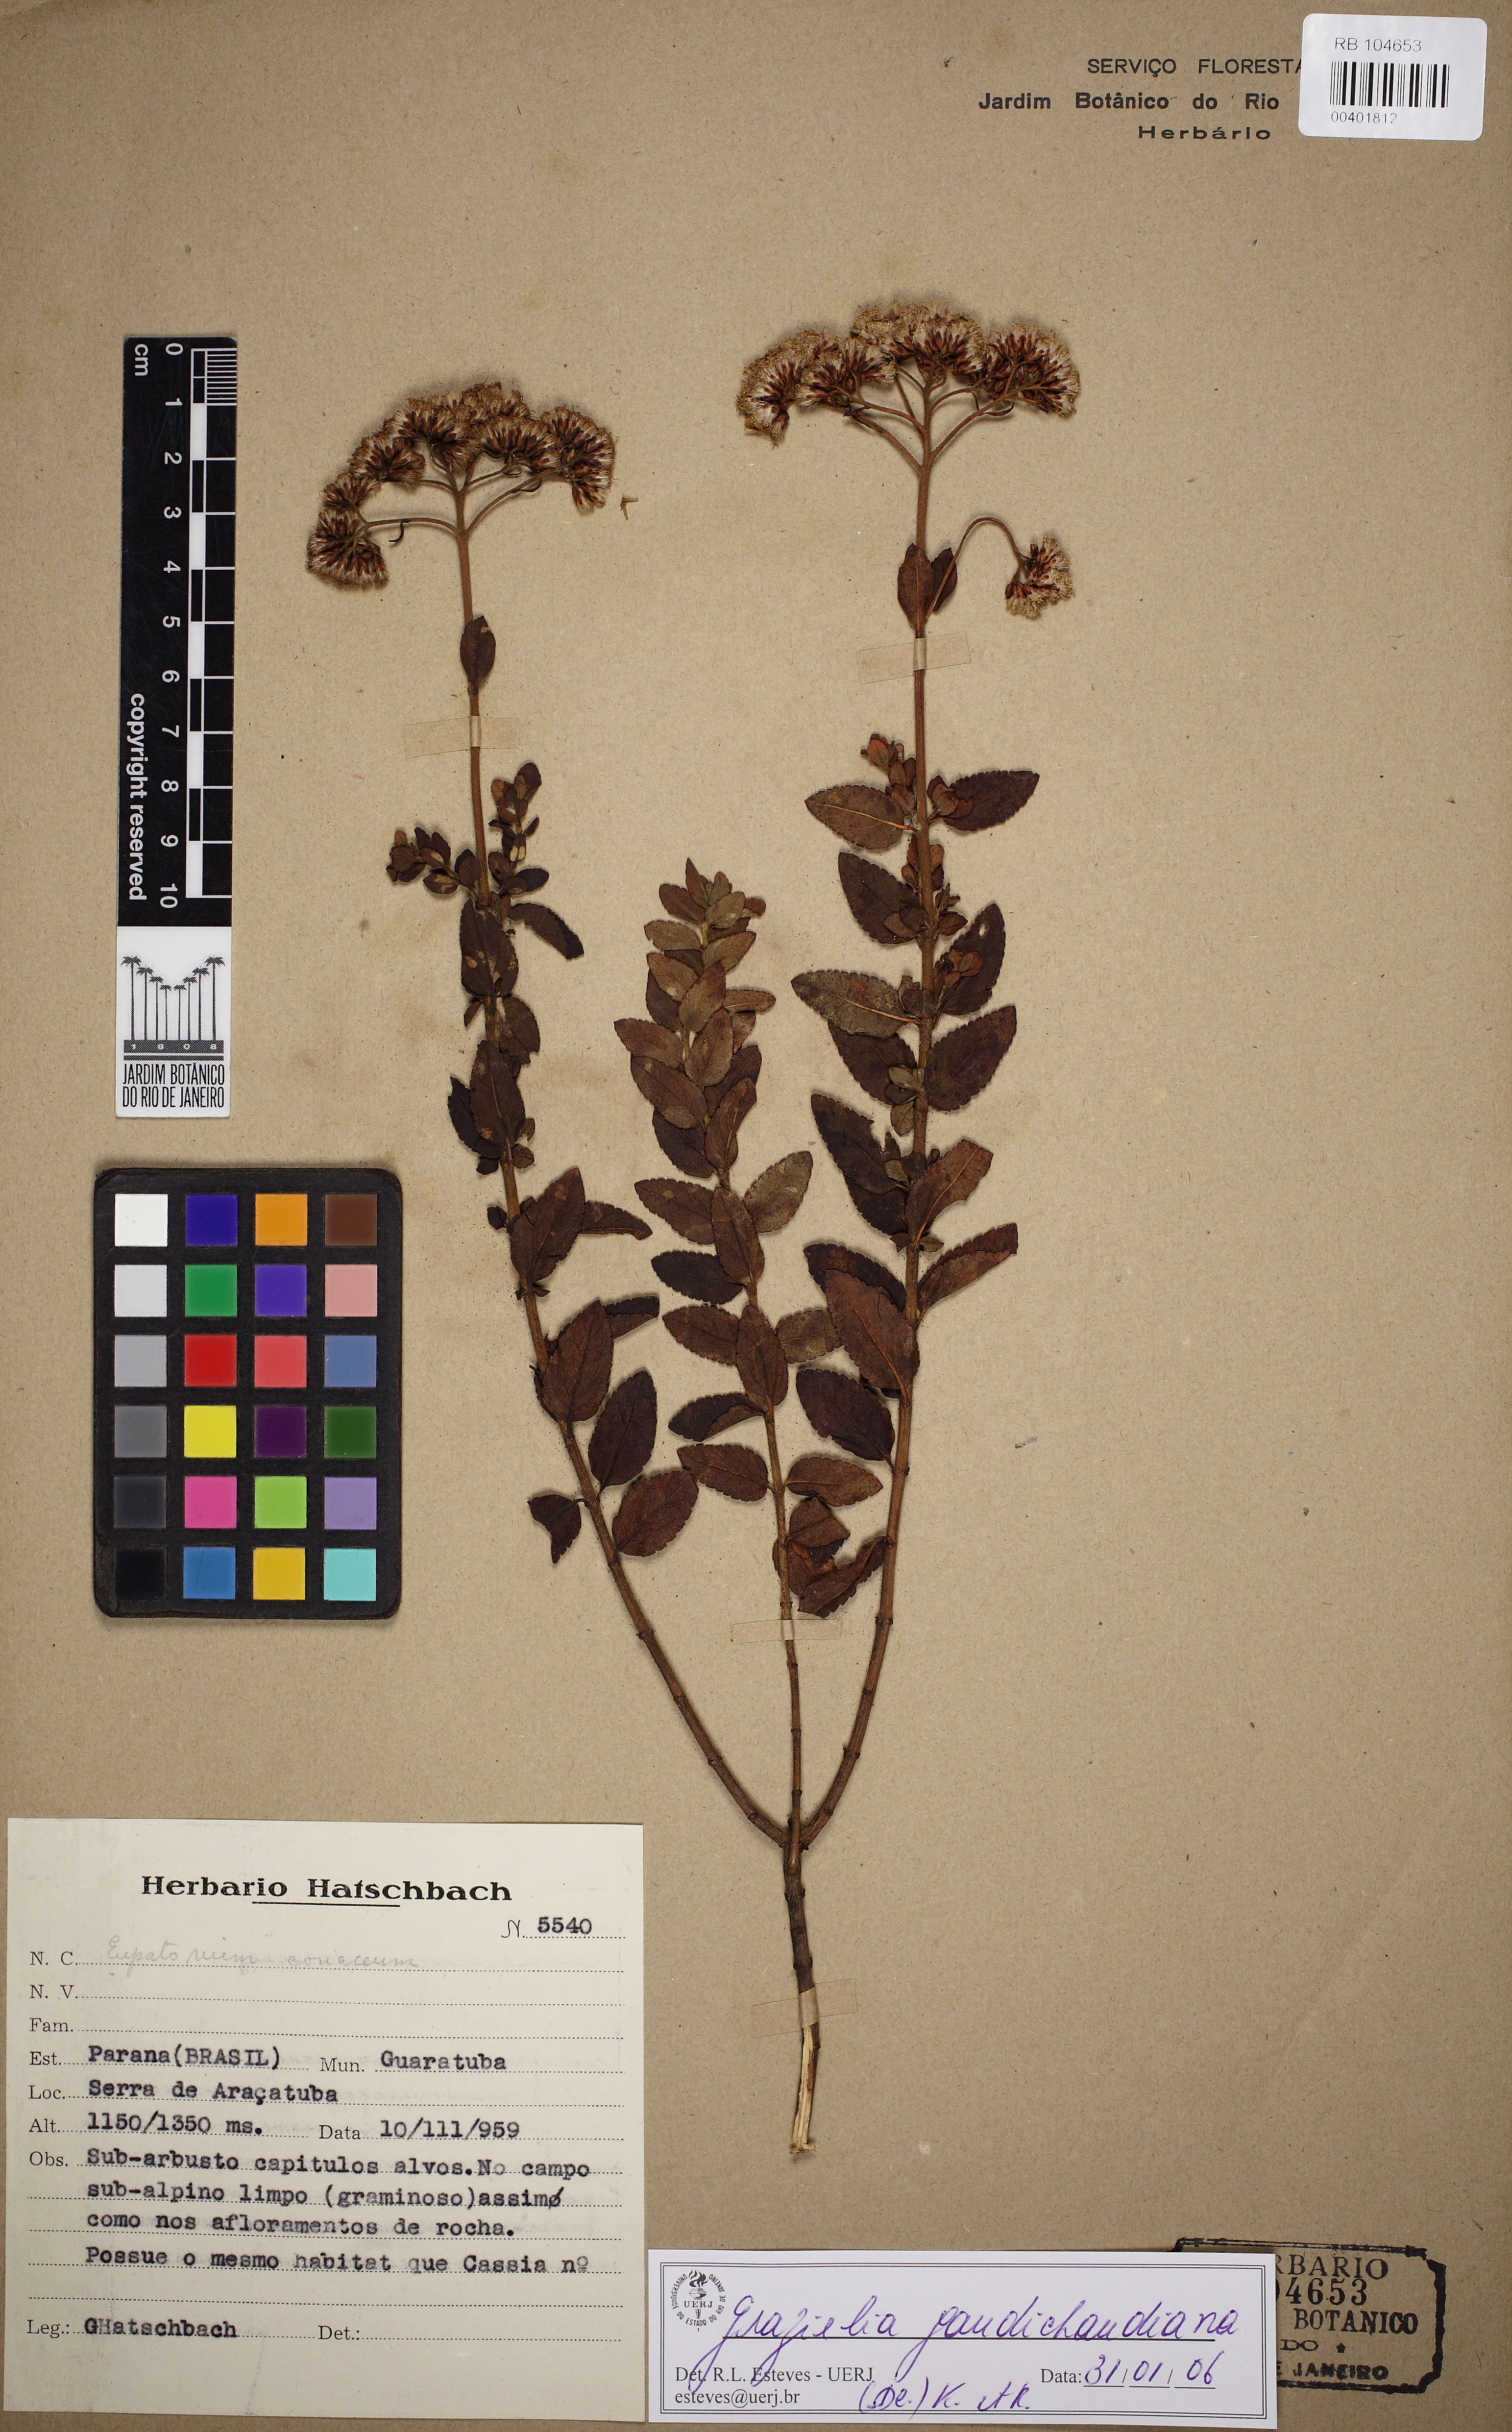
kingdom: Plantae
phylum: Tracheophyta
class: Magnoliopsida
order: Asterales
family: Asteraceae
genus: Grazielia
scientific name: Grazielia gaudichaudiana
